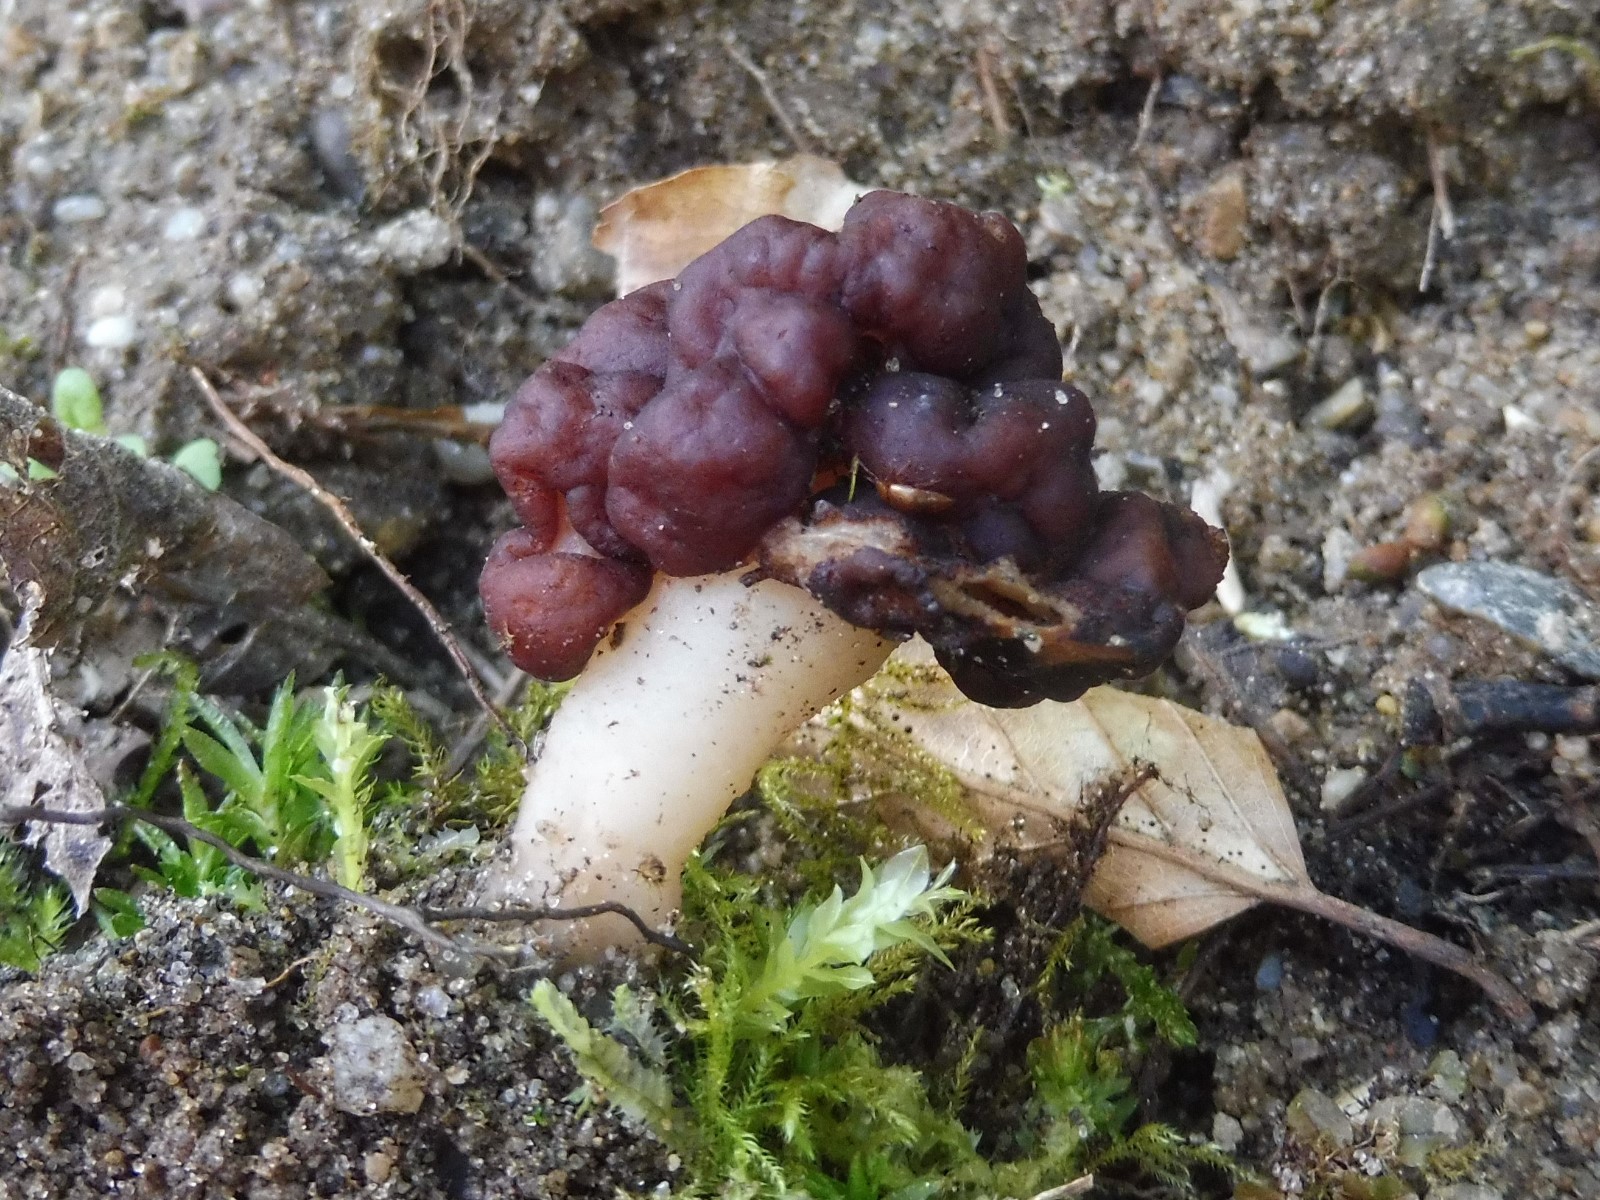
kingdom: Fungi
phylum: Ascomycota
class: Pezizomycetes
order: Pezizales
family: Discinaceae
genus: Gyromitra
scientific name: Gyromitra
